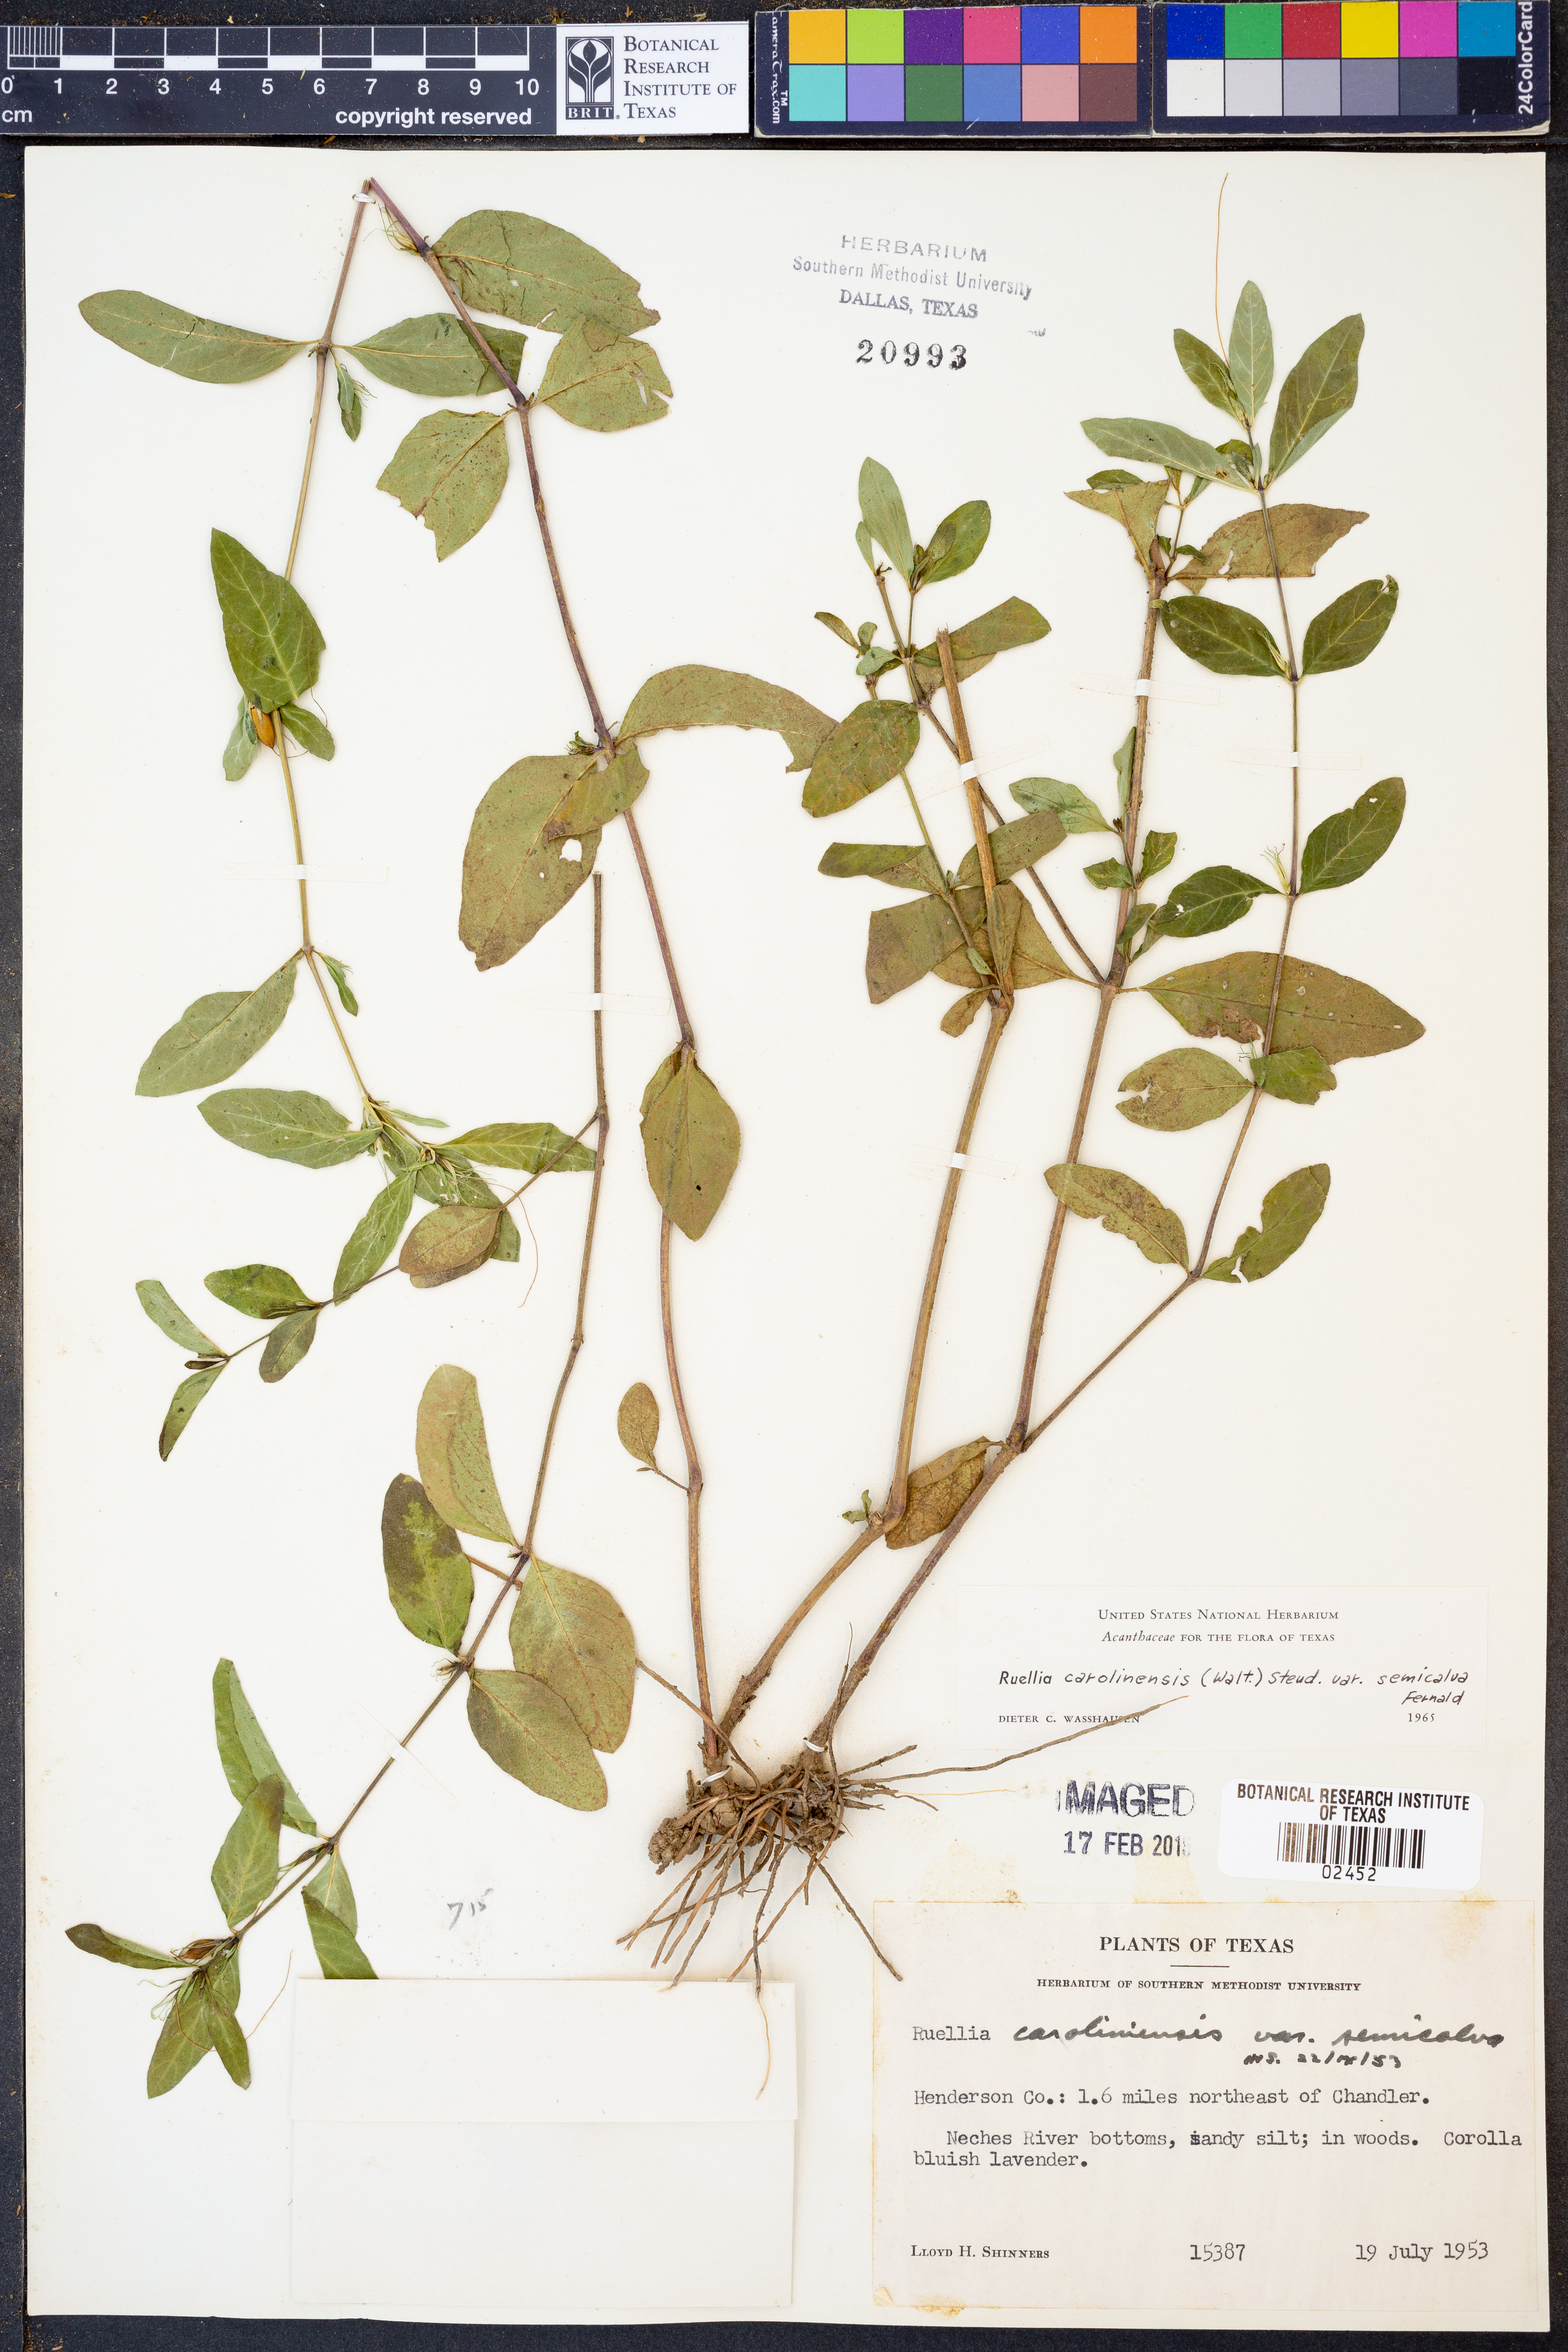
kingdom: Plantae
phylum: Tracheophyta
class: Magnoliopsida
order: Lamiales
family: Acanthaceae
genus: Ruellia
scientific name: Ruellia caroliniensis
